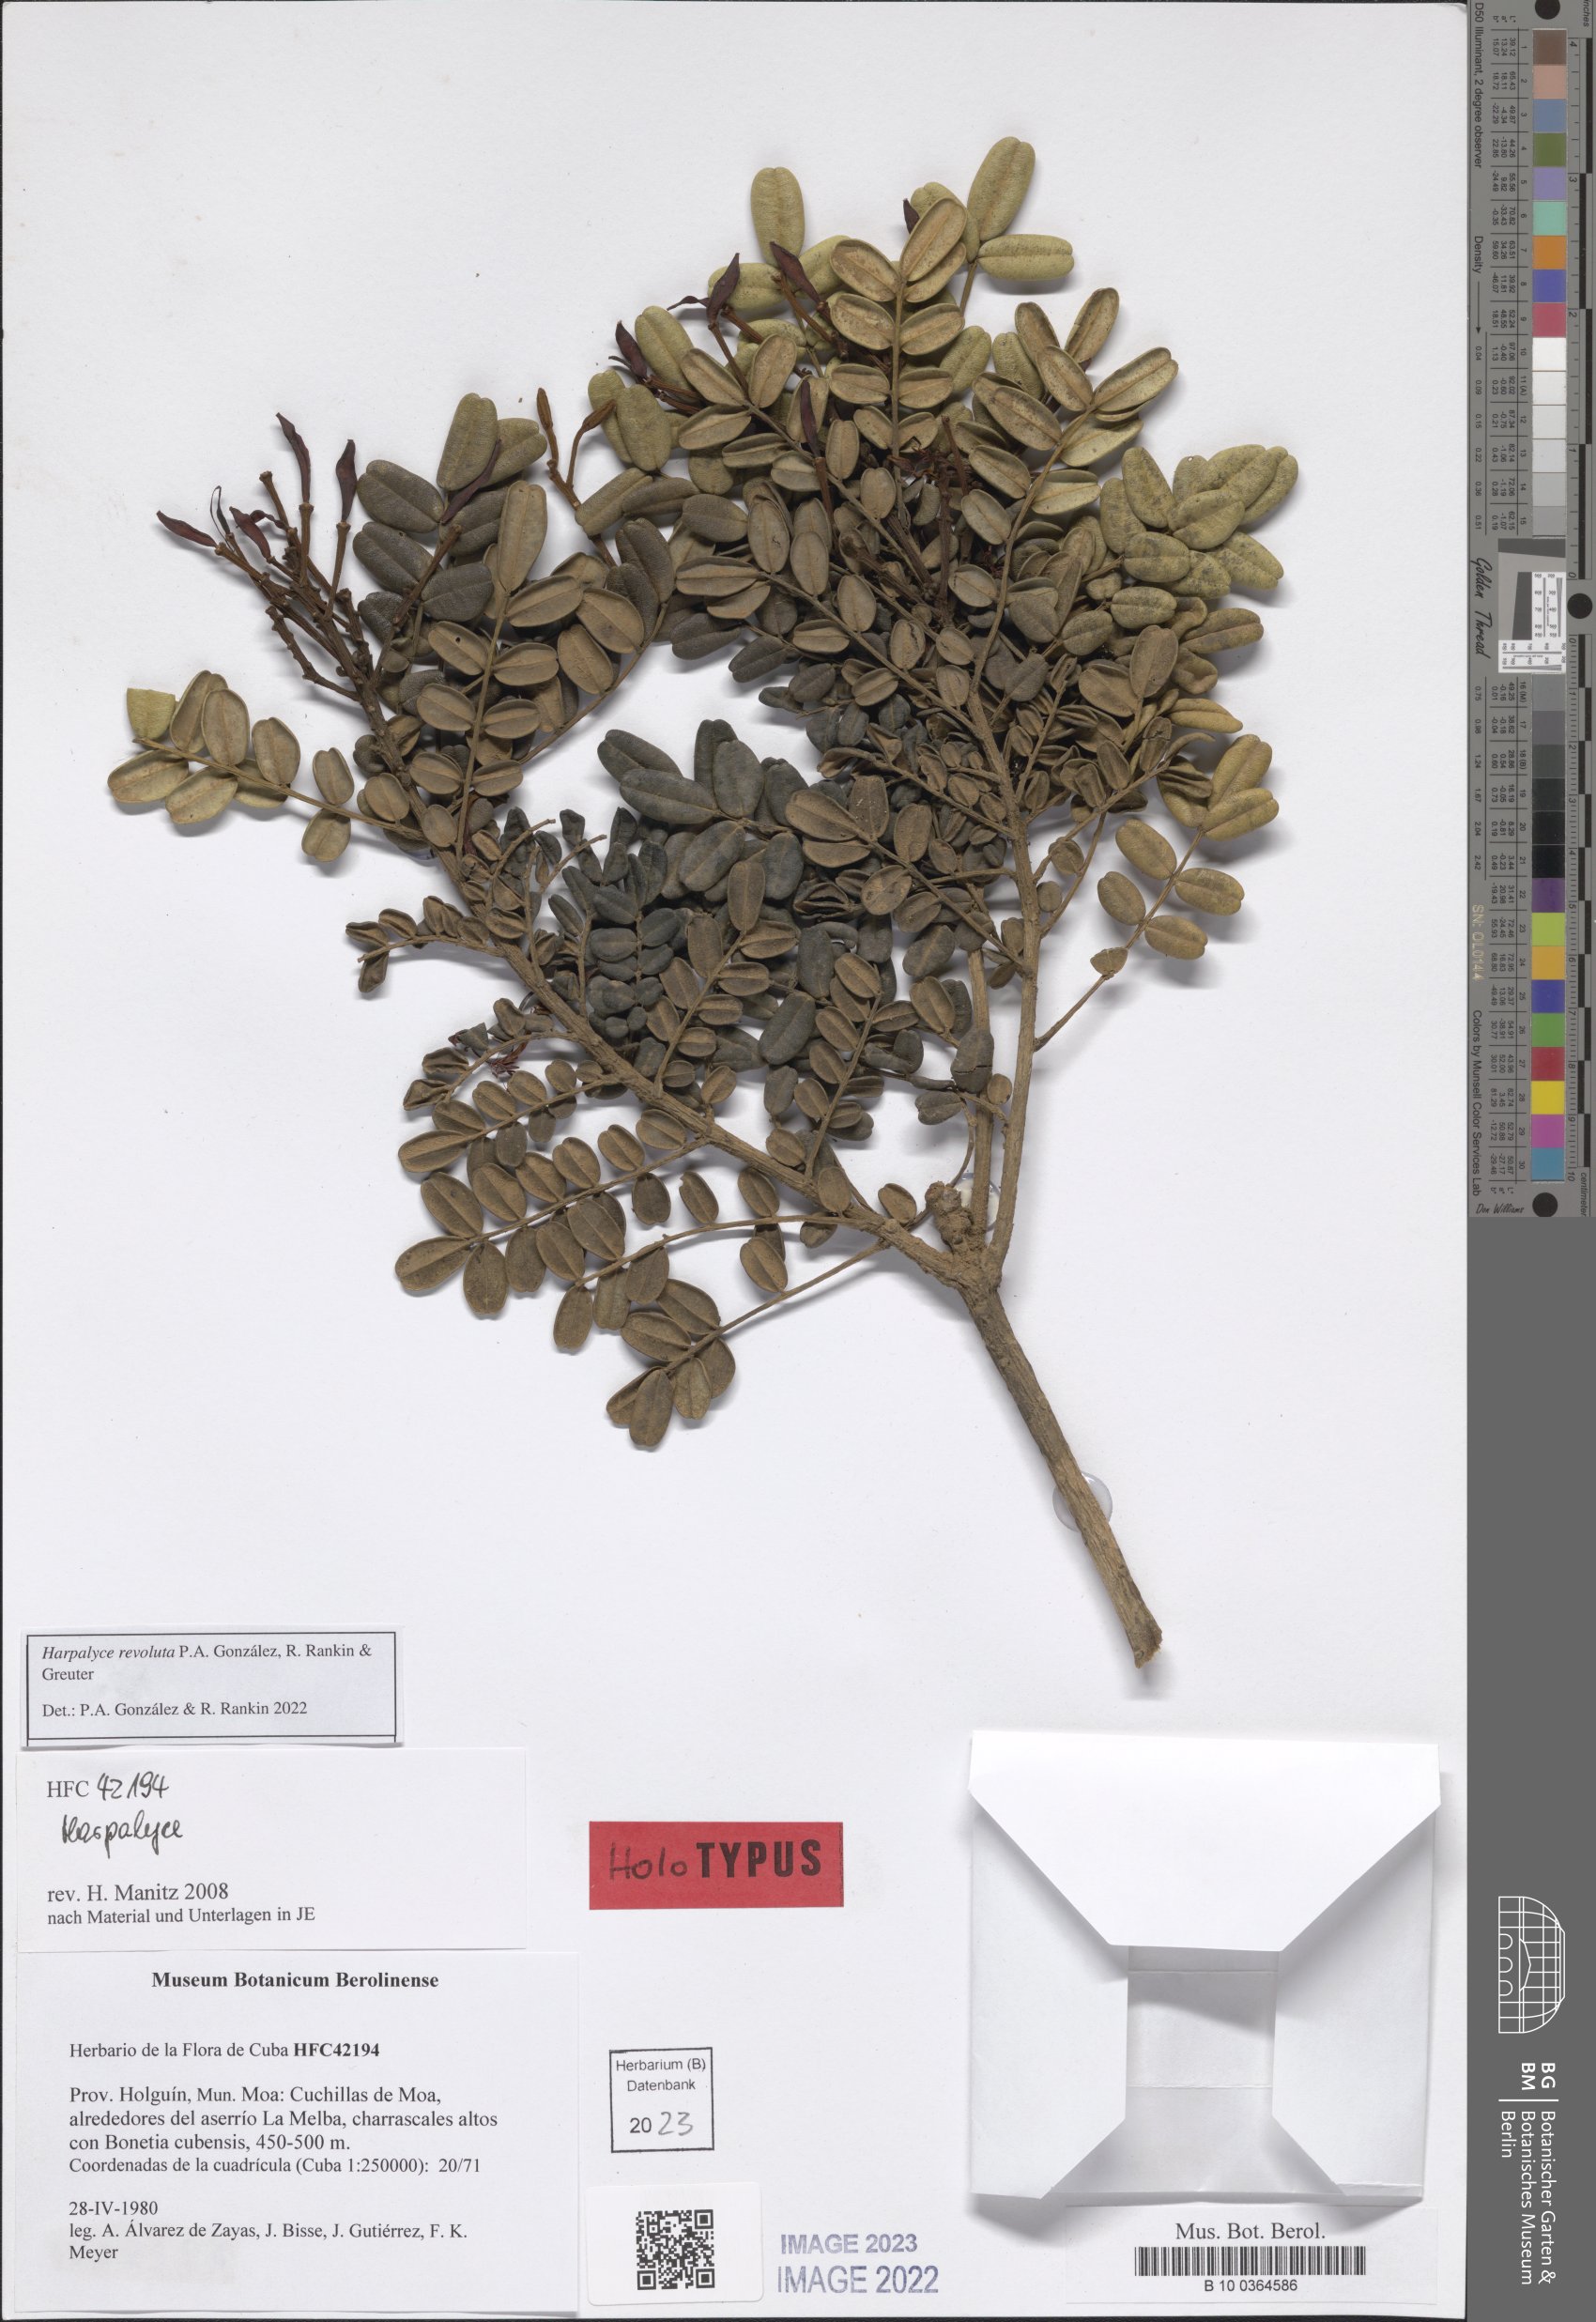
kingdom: Plantae
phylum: Tracheophyta
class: Magnoliopsida
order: Fabales
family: Fabaceae
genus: Harpalyce
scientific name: Harpalyce revoluta
